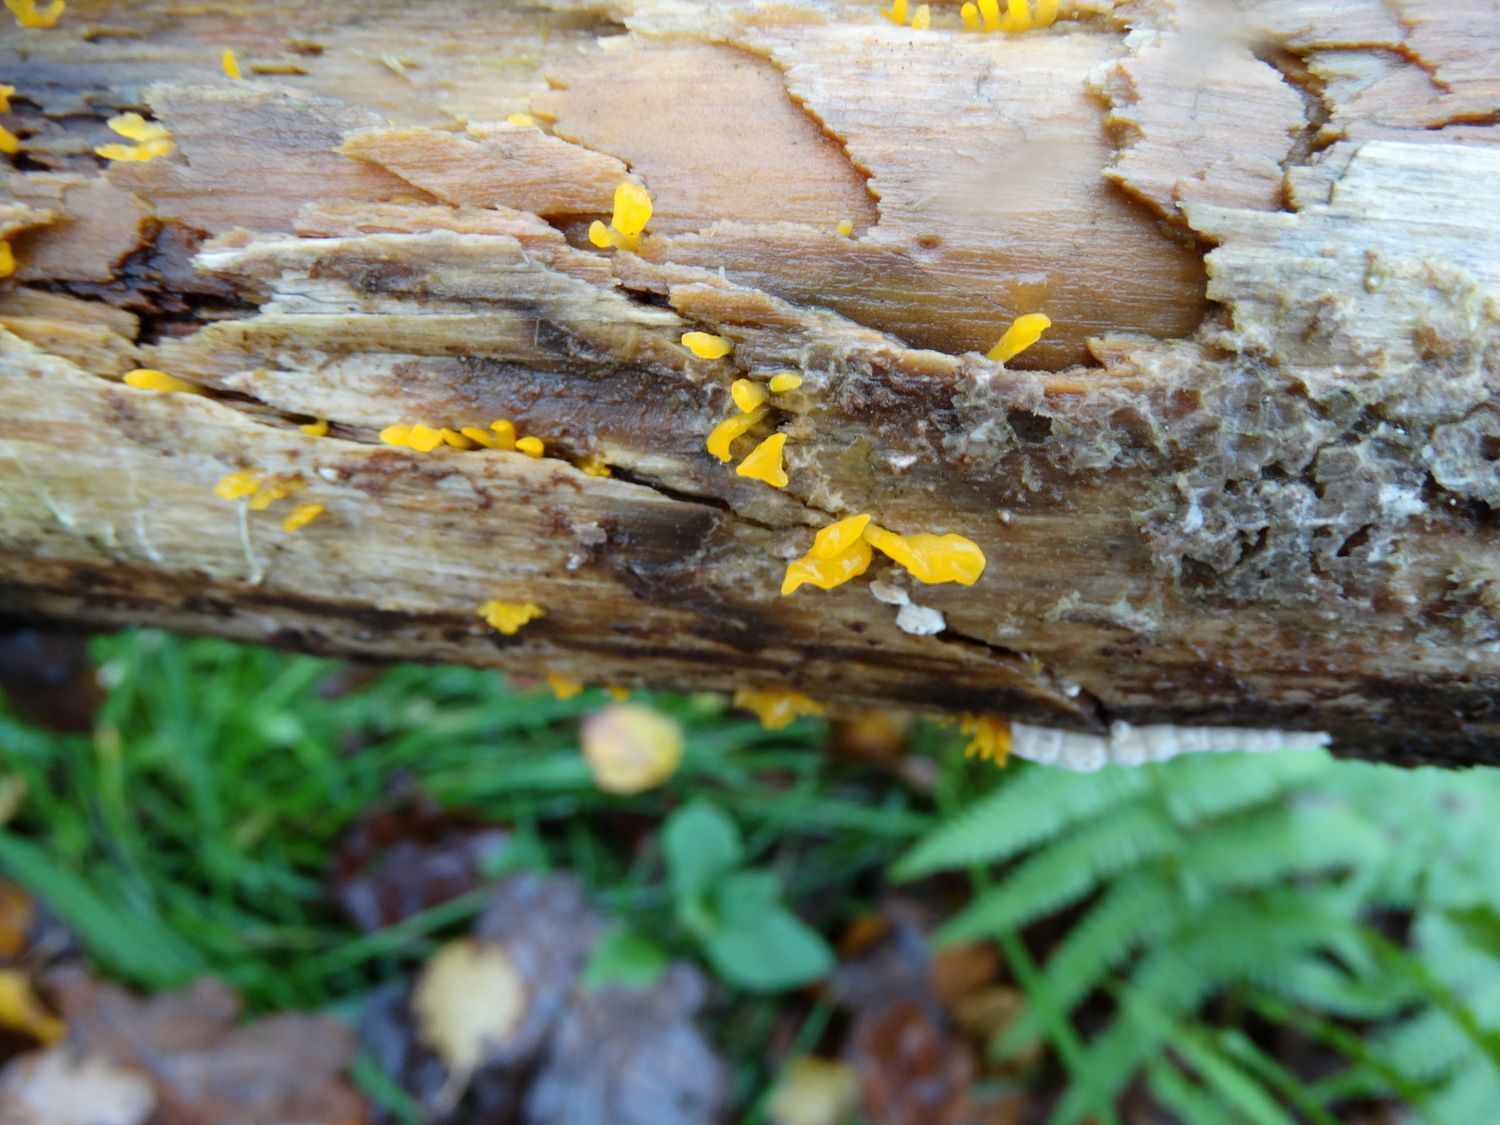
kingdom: Fungi
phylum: Basidiomycota
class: Dacrymycetes
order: Dacrymycetales
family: Dacrymycetaceae
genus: Calocera
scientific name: Calocera furcata
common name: fyrre-guldgaffel
